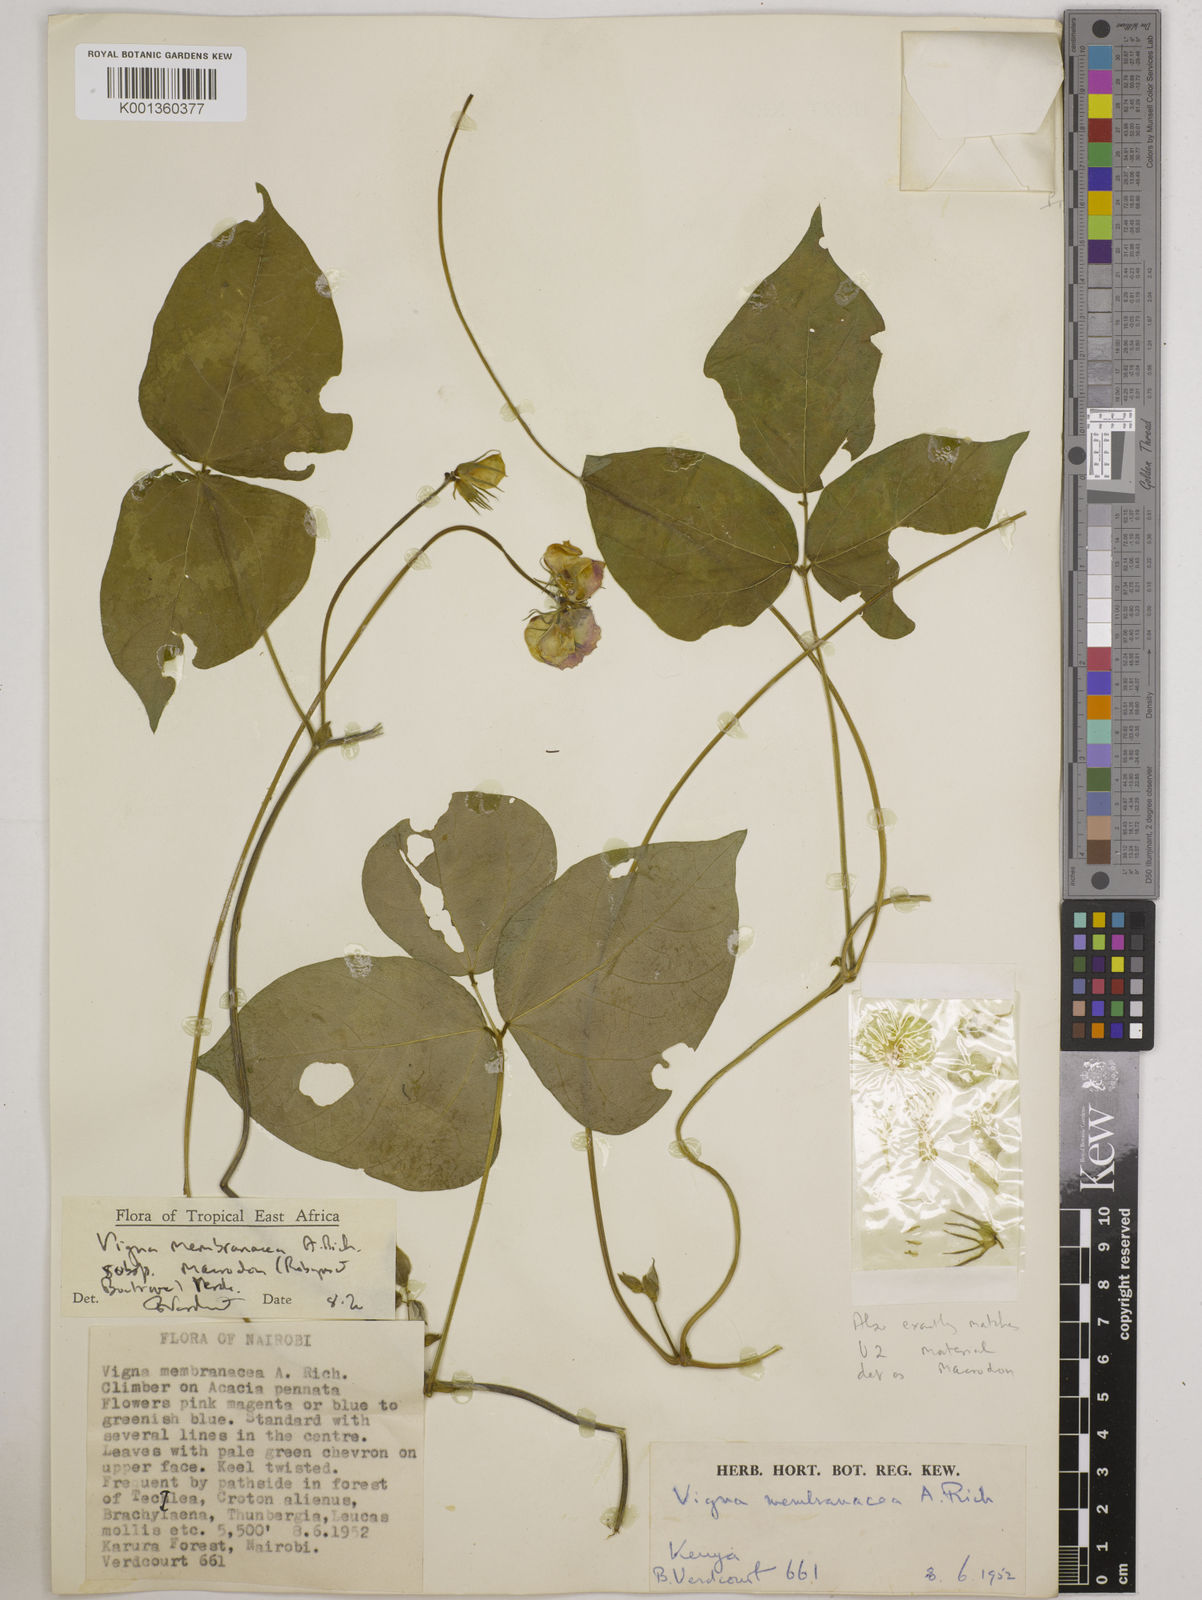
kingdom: Plantae
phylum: Tracheophyta
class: Magnoliopsida
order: Fabales
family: Fabaceae
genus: Vigna
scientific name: Vigna
